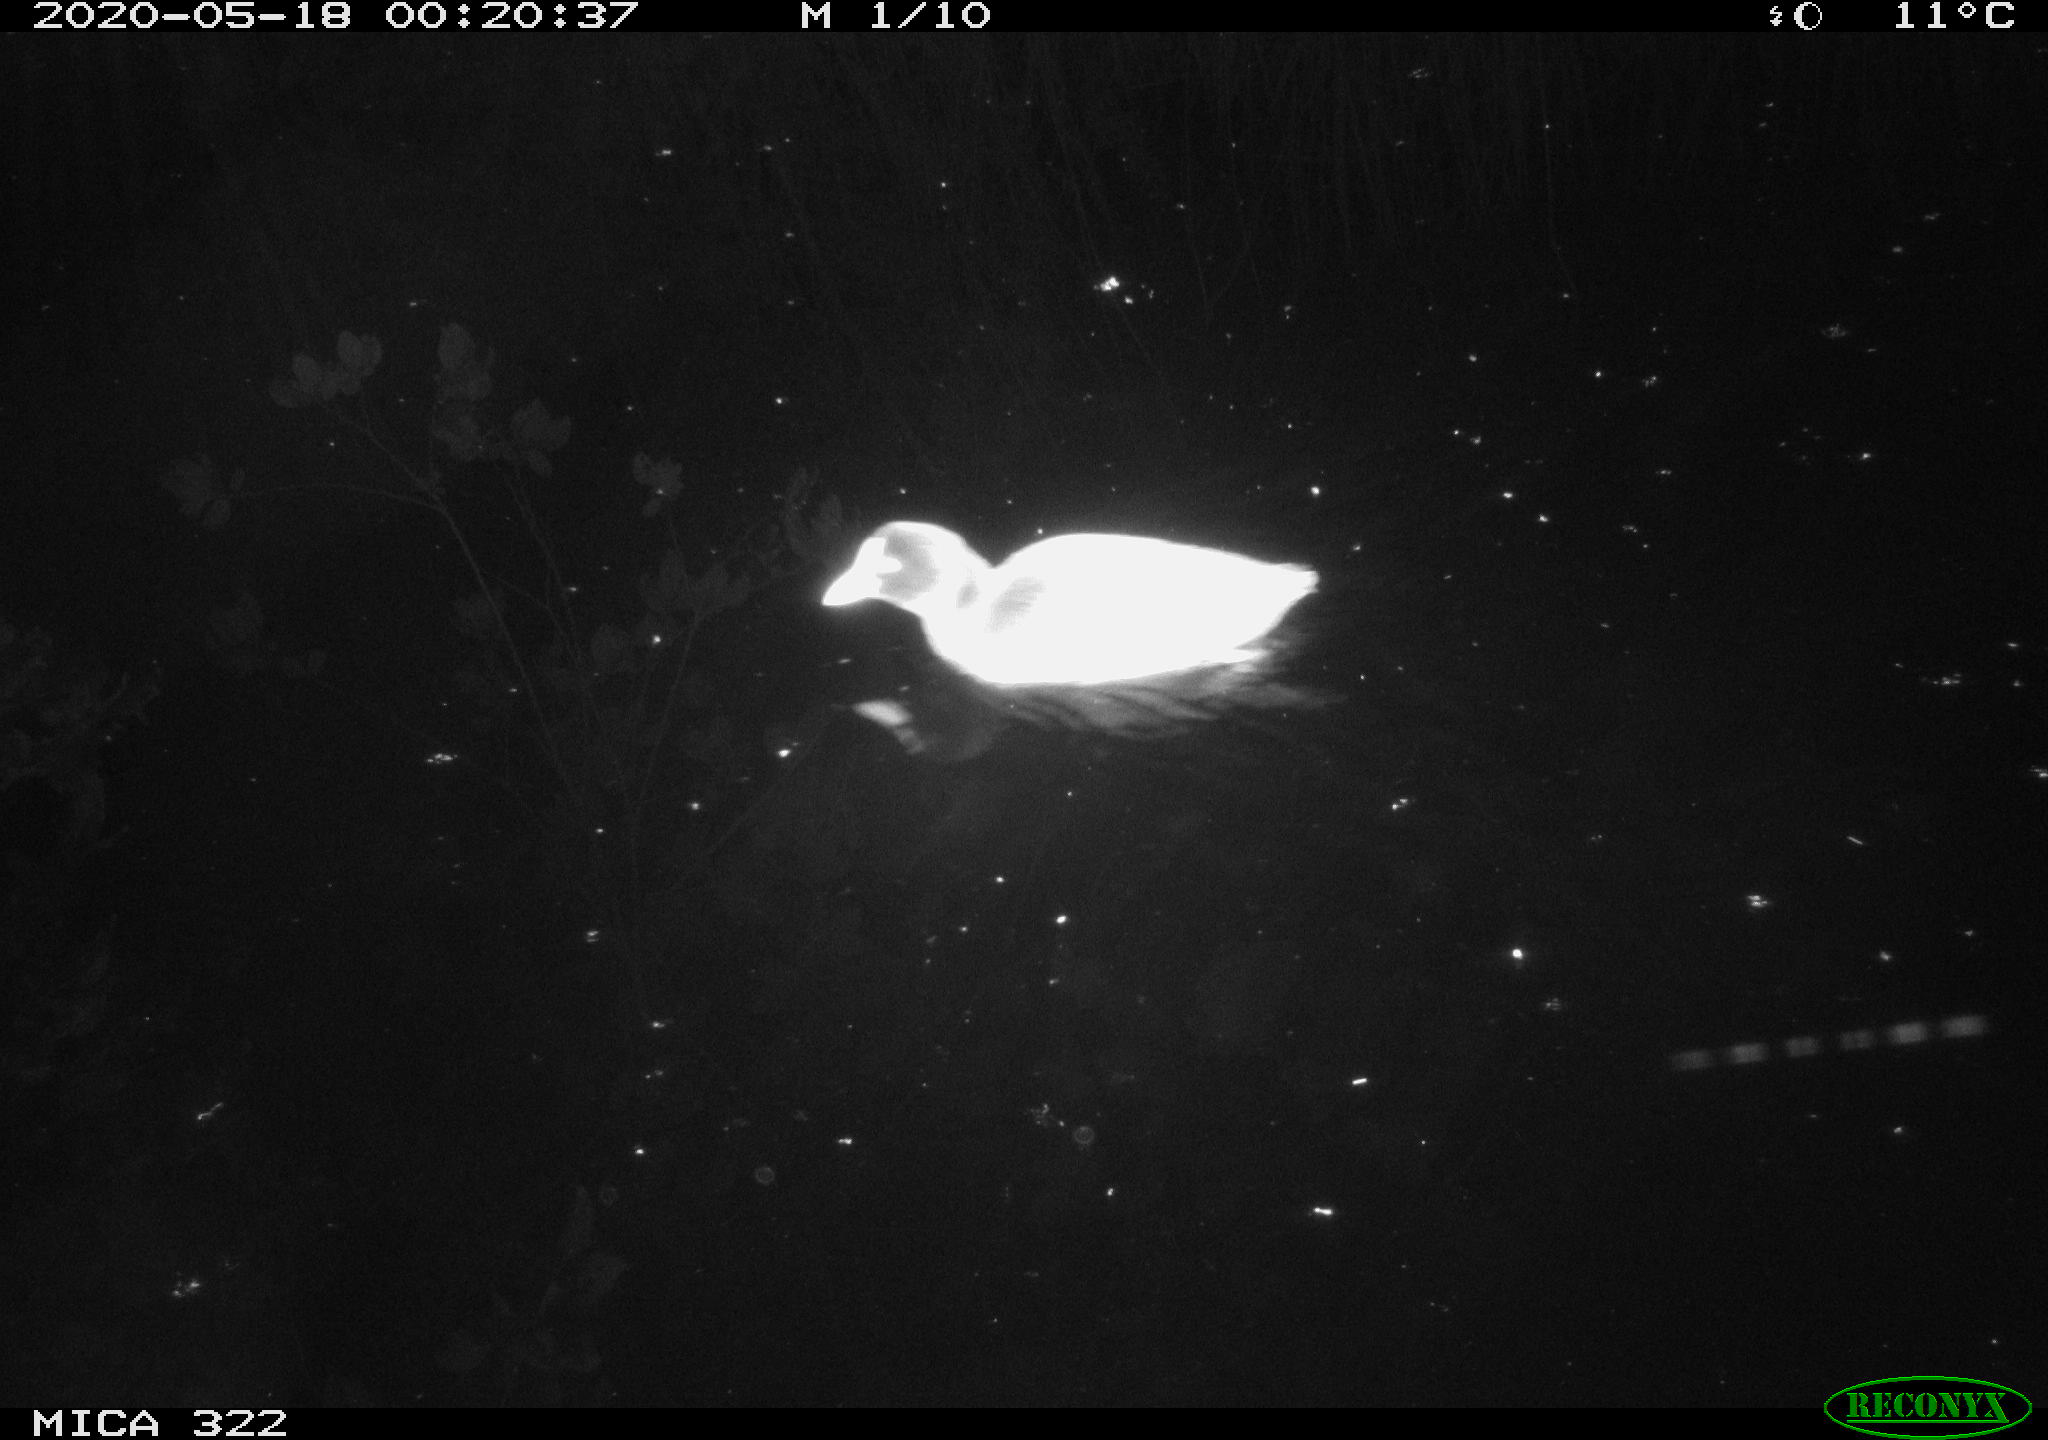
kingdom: Animalia
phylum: Chordata
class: Aves
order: Gruiformes
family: Rallidae
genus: Fulica
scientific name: Fulica atra
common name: Eurasian coot
